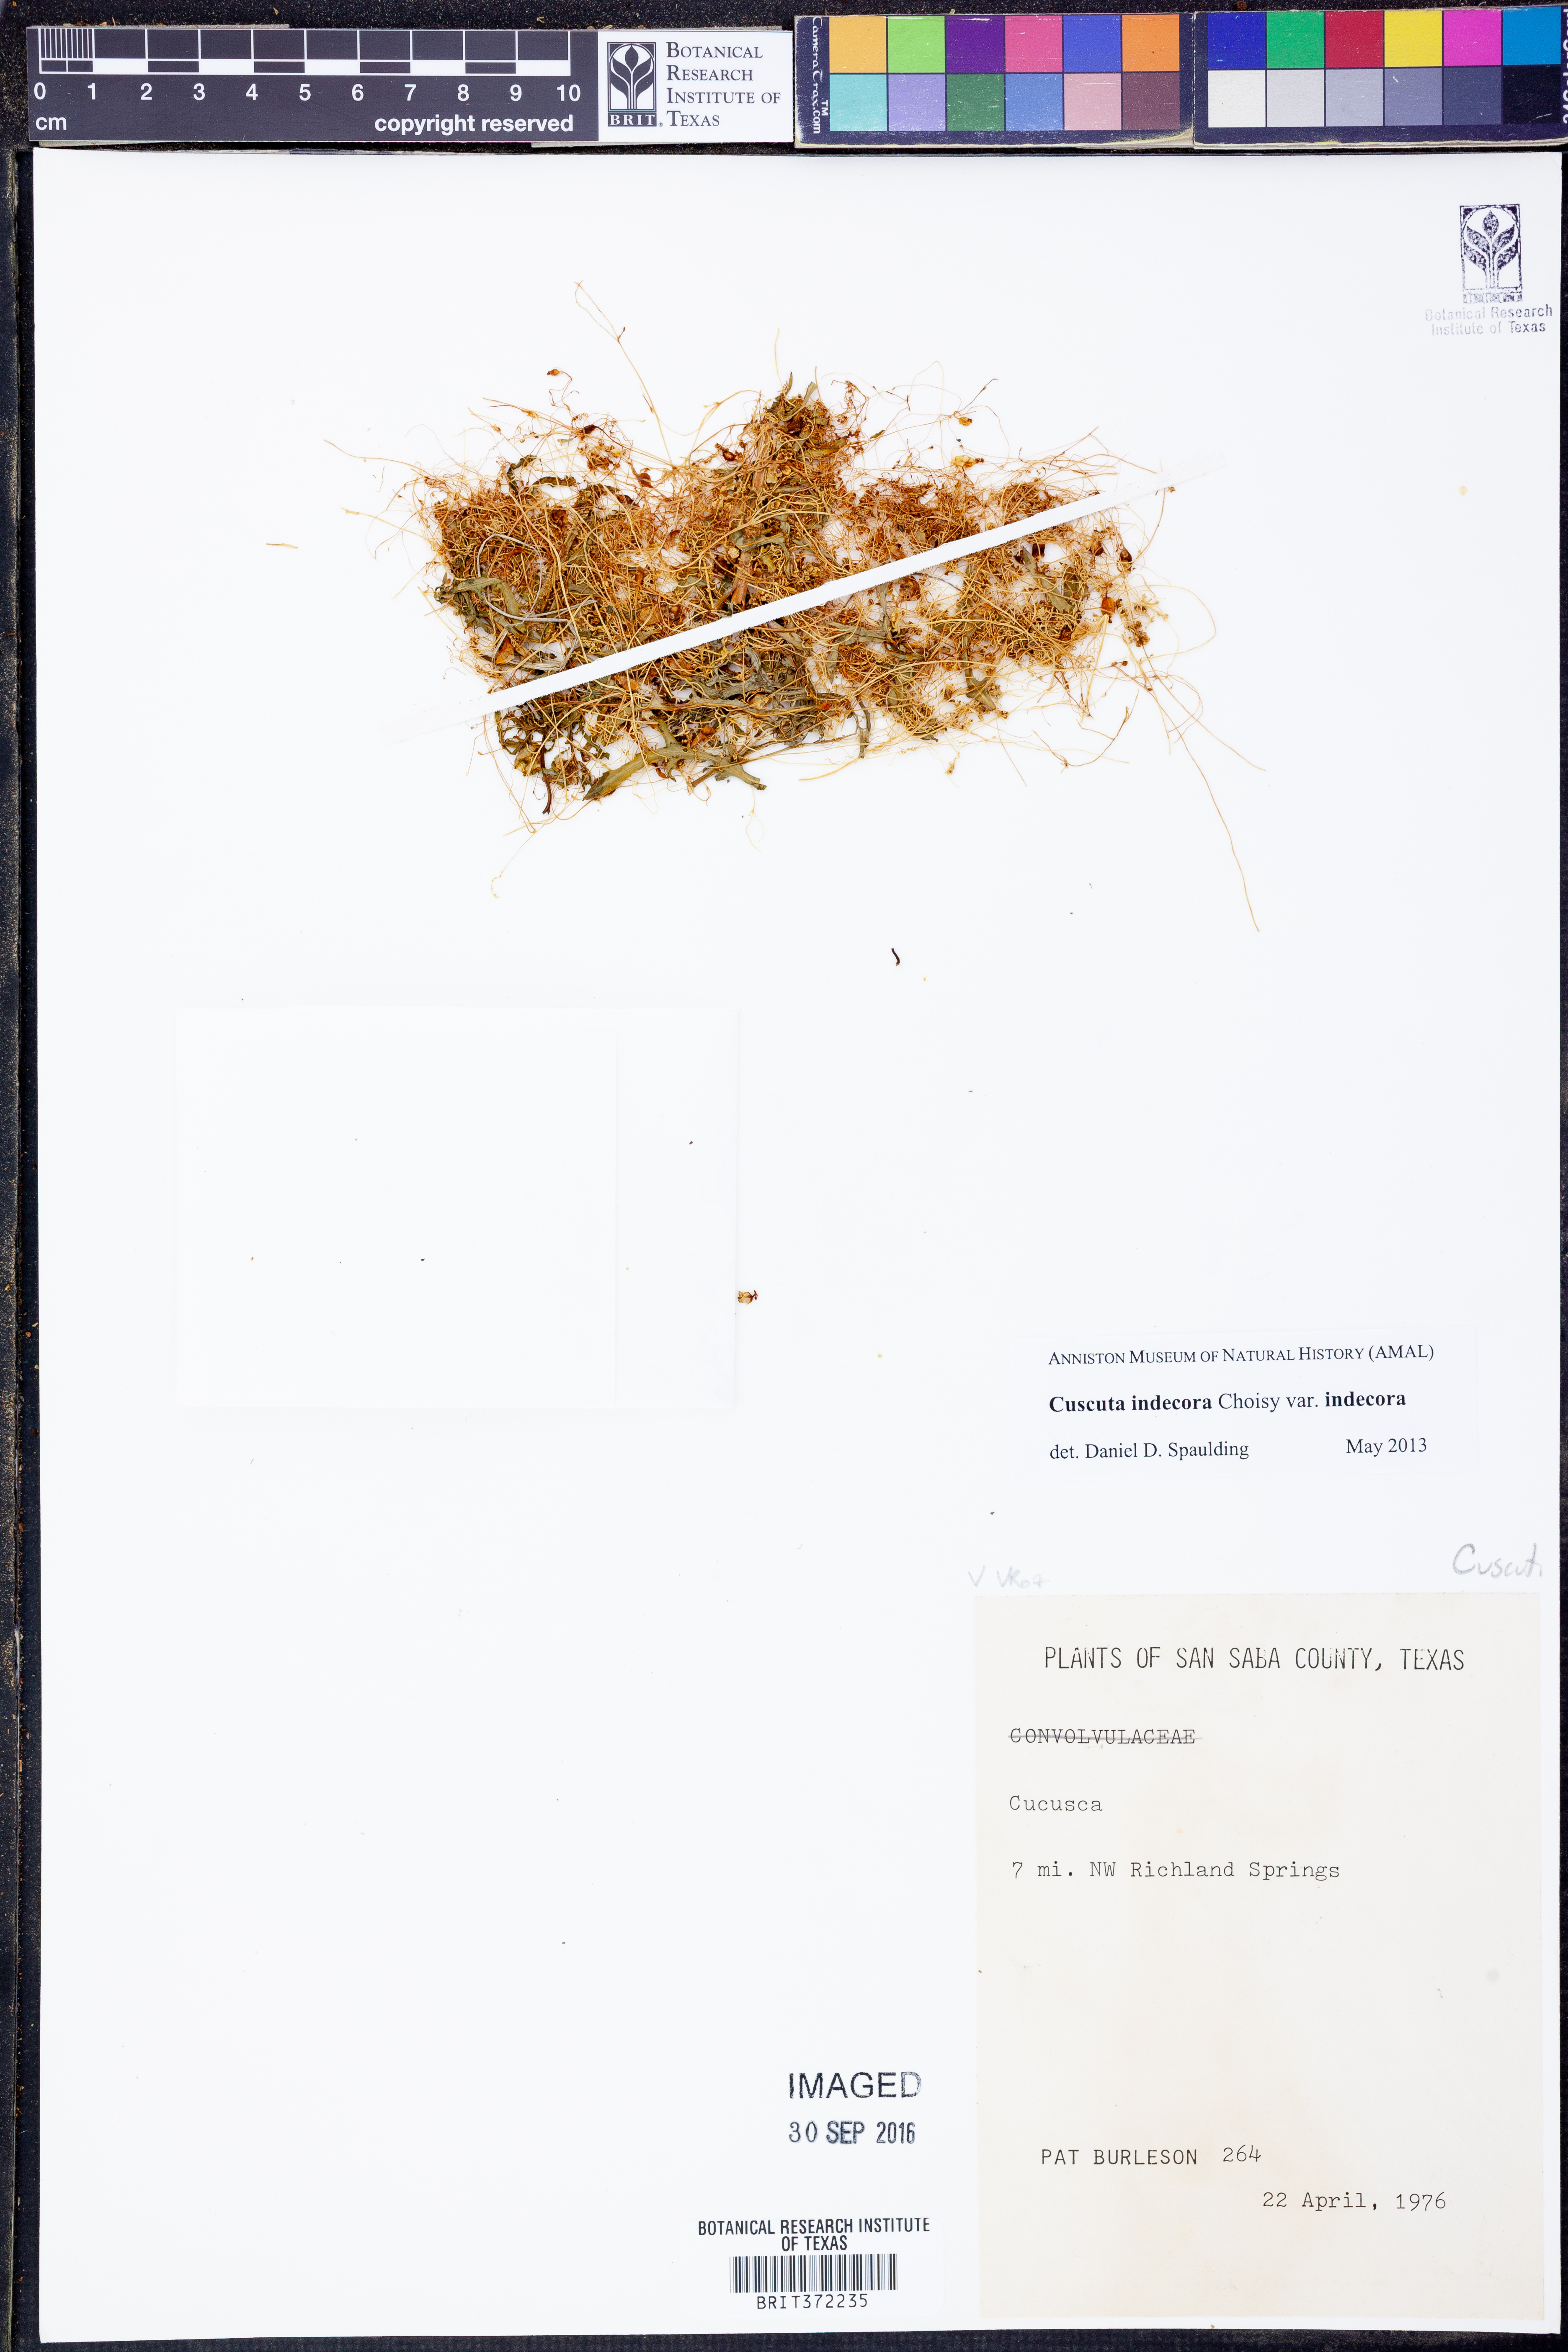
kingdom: Plantae
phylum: Tracheophyta
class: Magnoliopsida
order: Solanales
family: Convolvulaceae
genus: Cuscuta
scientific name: Cuscuta indecora
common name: Large-seed dodder
